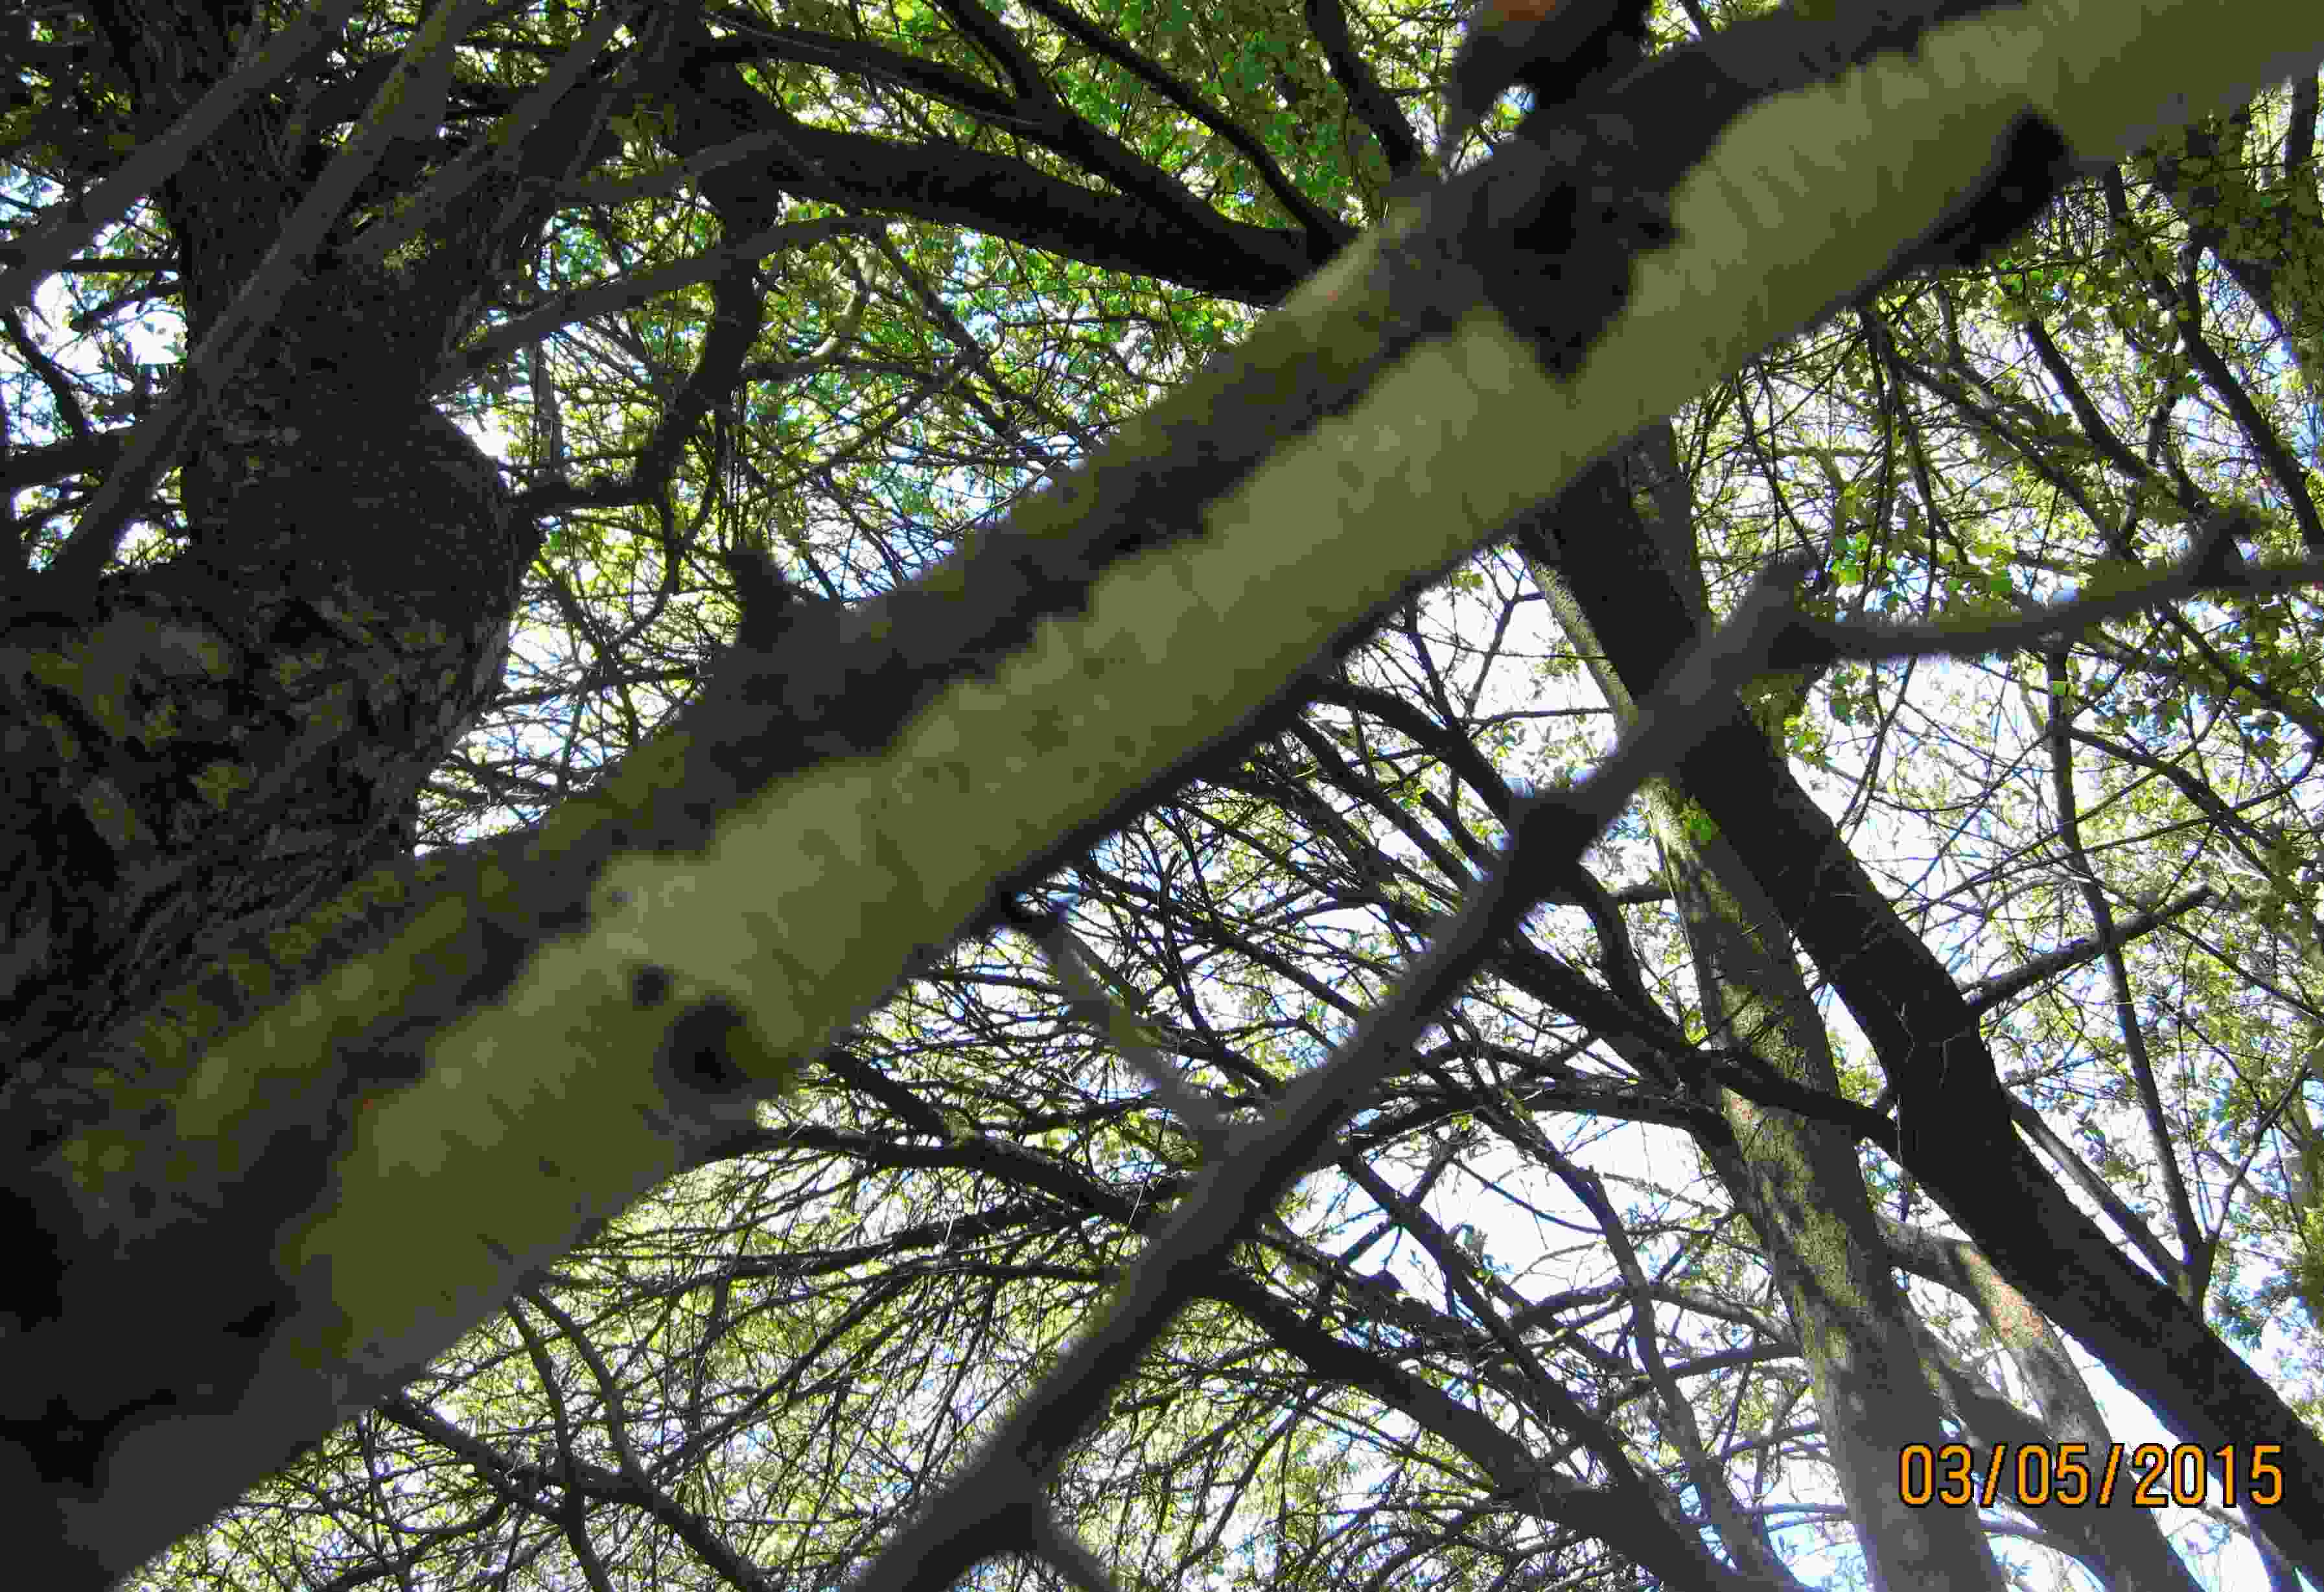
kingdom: Fungi
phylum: Basidiomycota
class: Agaricomycetes
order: Corticiales
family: Vuilleminiaceae
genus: Vuilleminia
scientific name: Vuilleminia cystidiata
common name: tjørne-barksprænger
